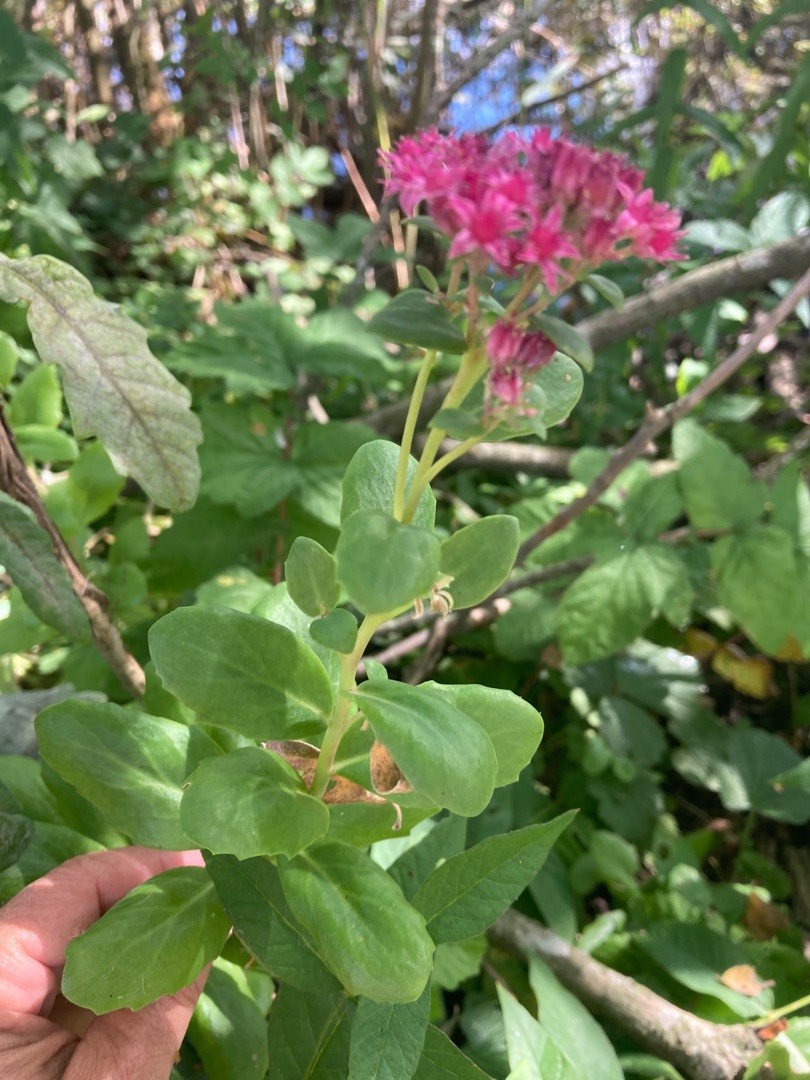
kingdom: Plantae
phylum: Tracheophyta
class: Magnoliopsida
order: Saxifragales
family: Crassulaceae
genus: Hylotelephium
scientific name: Hylotelephium telephium
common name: Rød sankthansurt
